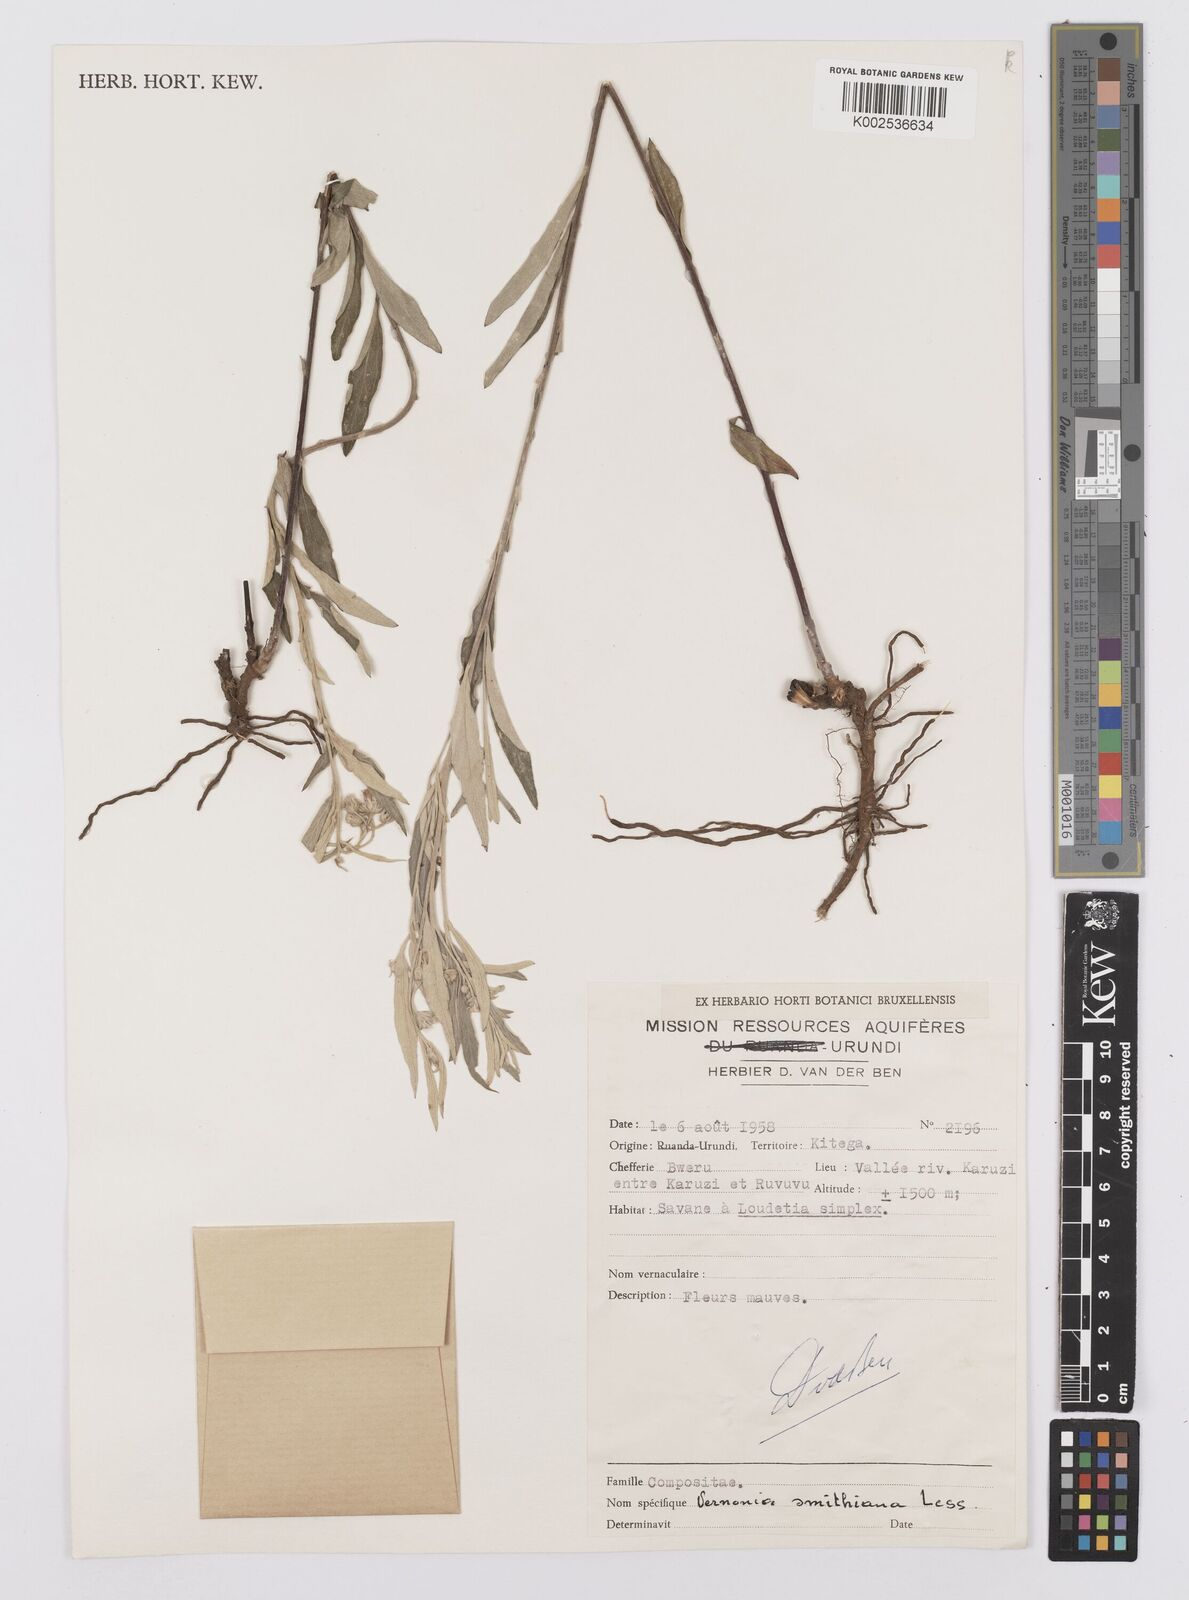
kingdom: Plantae
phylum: Tracheophyta
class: Magnoliopsida
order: Asterales
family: Asteraceae
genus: Hilliardiella
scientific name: Hilliardiella smithiana
